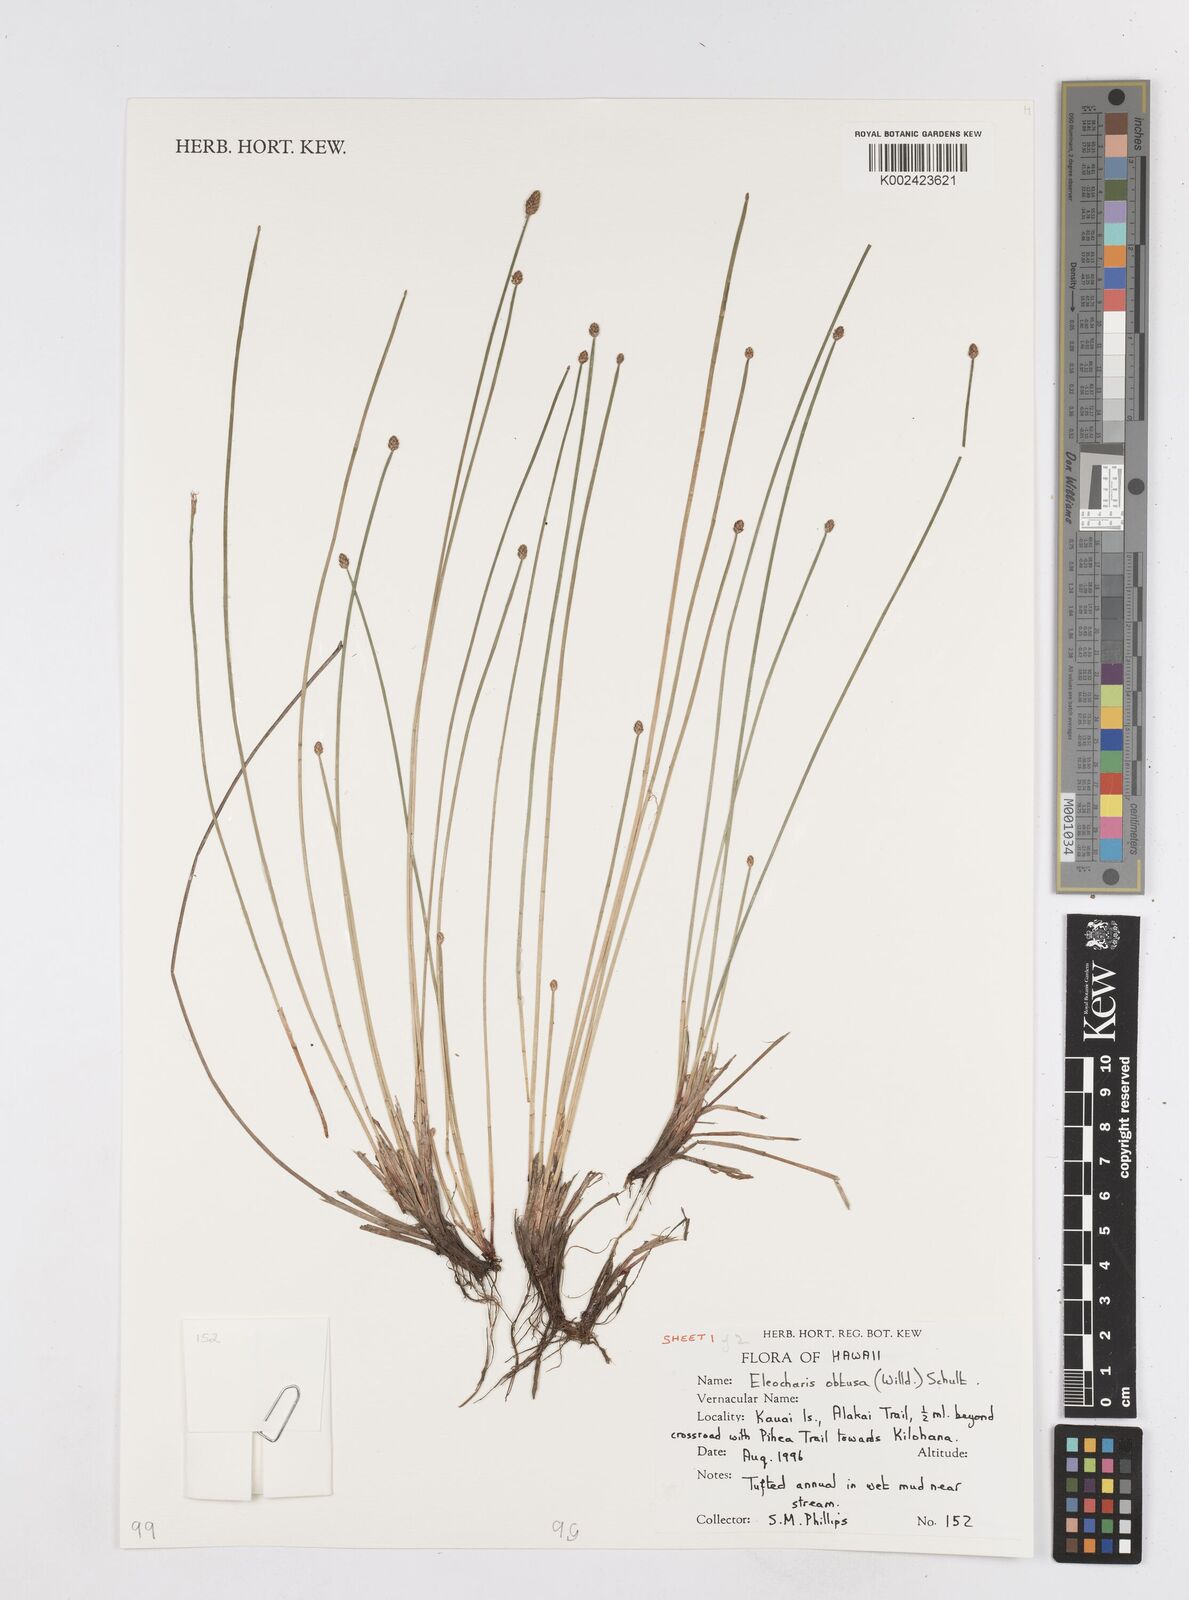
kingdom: Plantae
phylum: Tracheophyta
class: Liliopsida
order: Poales
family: Cyperaceae
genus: Eleocharis
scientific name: Eleocharis obtusa
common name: Blunt spikerush
